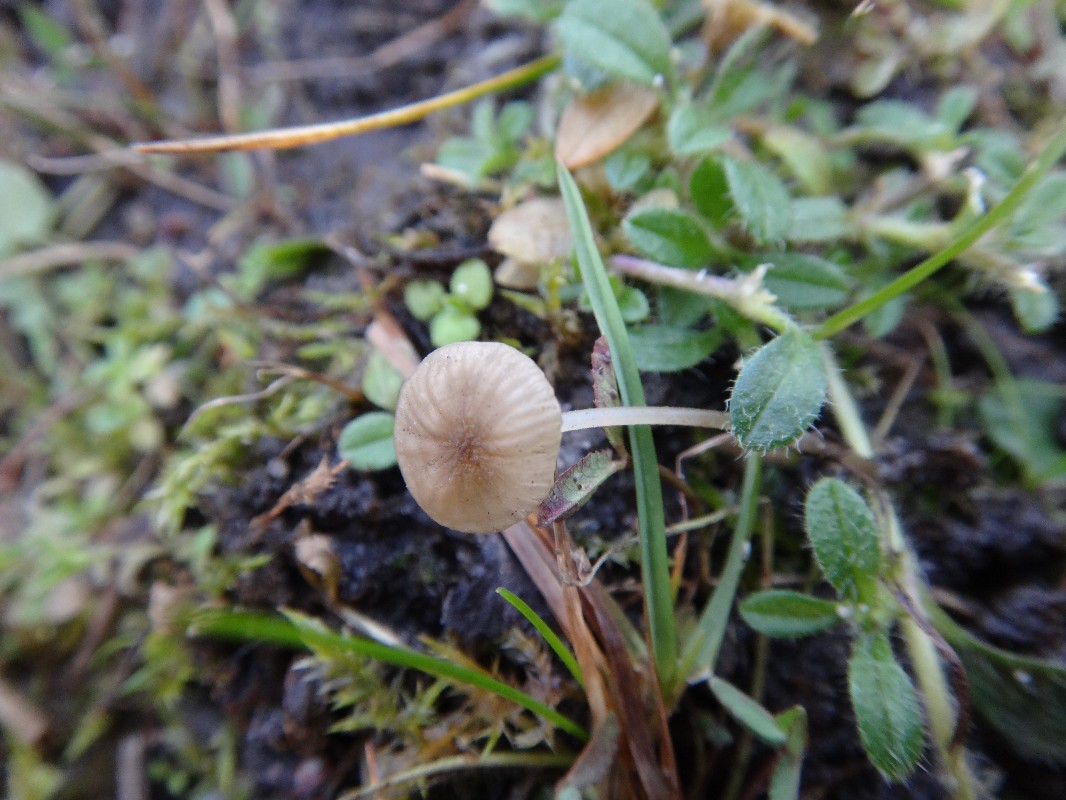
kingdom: Fungi
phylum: Basidiomycota
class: Agaricomycetes
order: Agaricales
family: Porotheleaceae
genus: Phloeomana
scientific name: Phloeomana speirea
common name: kvist-huesvamp
